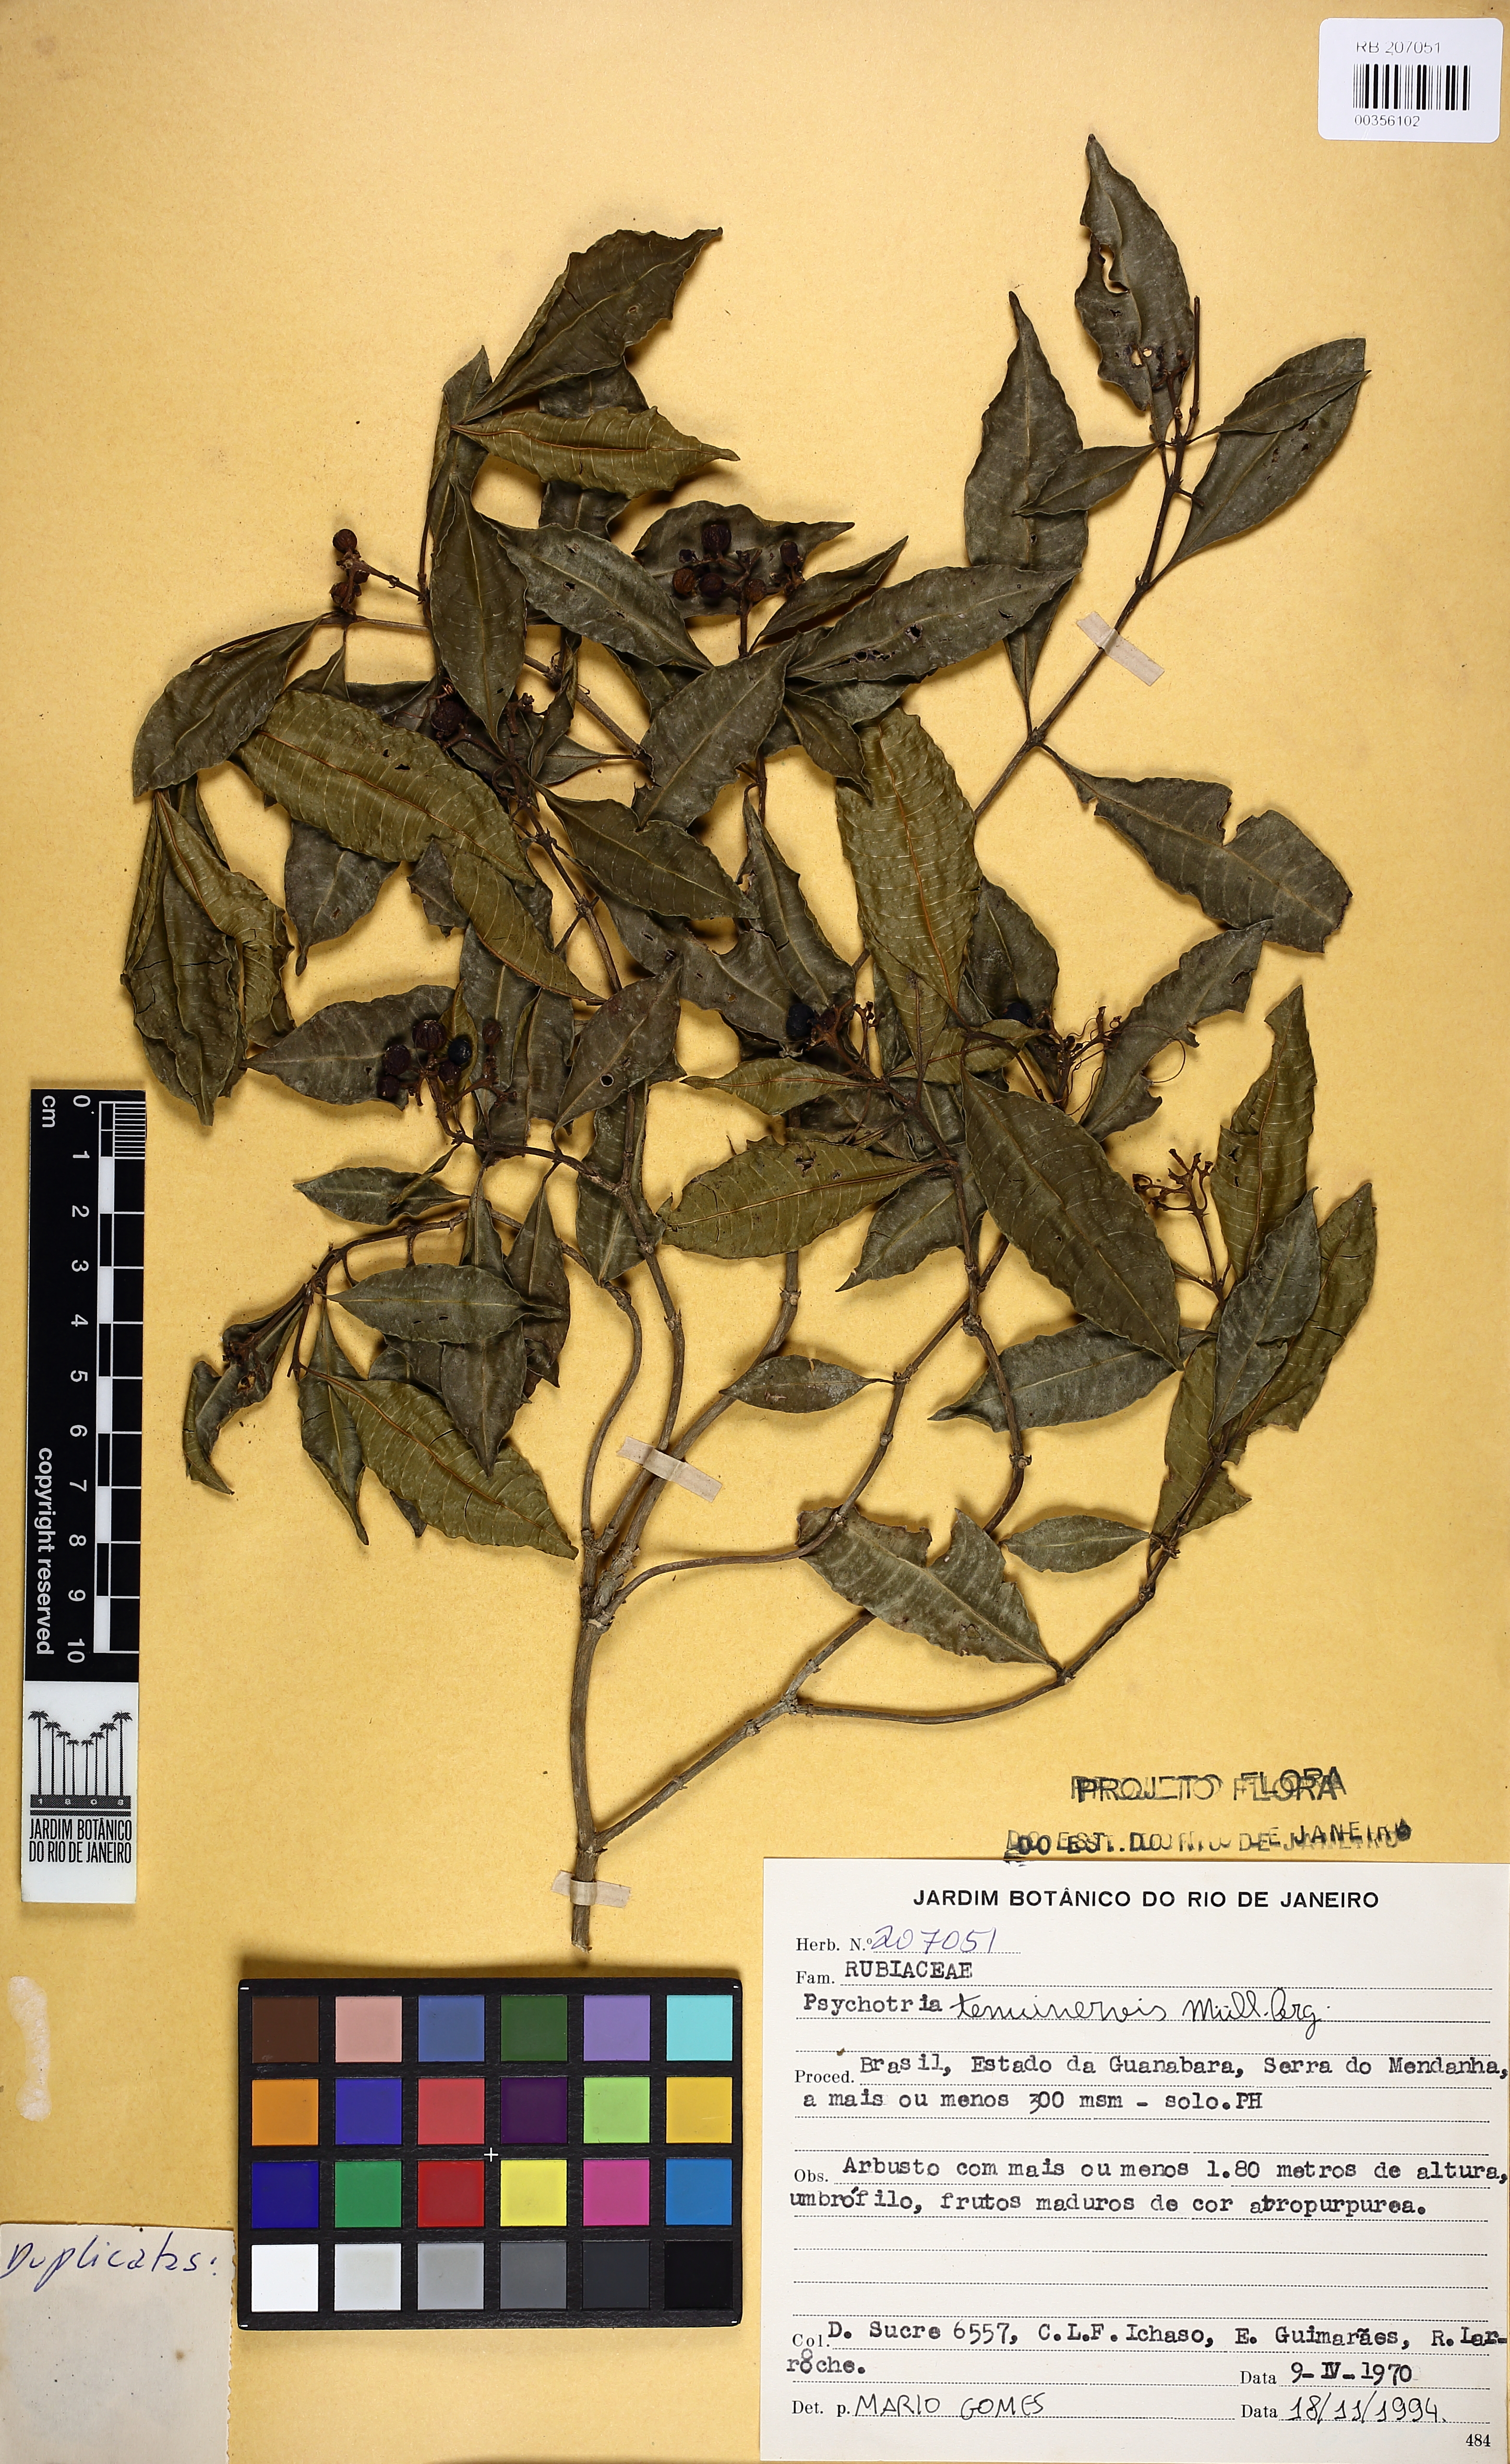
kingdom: Plantae
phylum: Tracheophyta
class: Magnoliopsida
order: Gentianales
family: Rubiaceae
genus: Psychotria
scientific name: Psychotria tenuinervis
